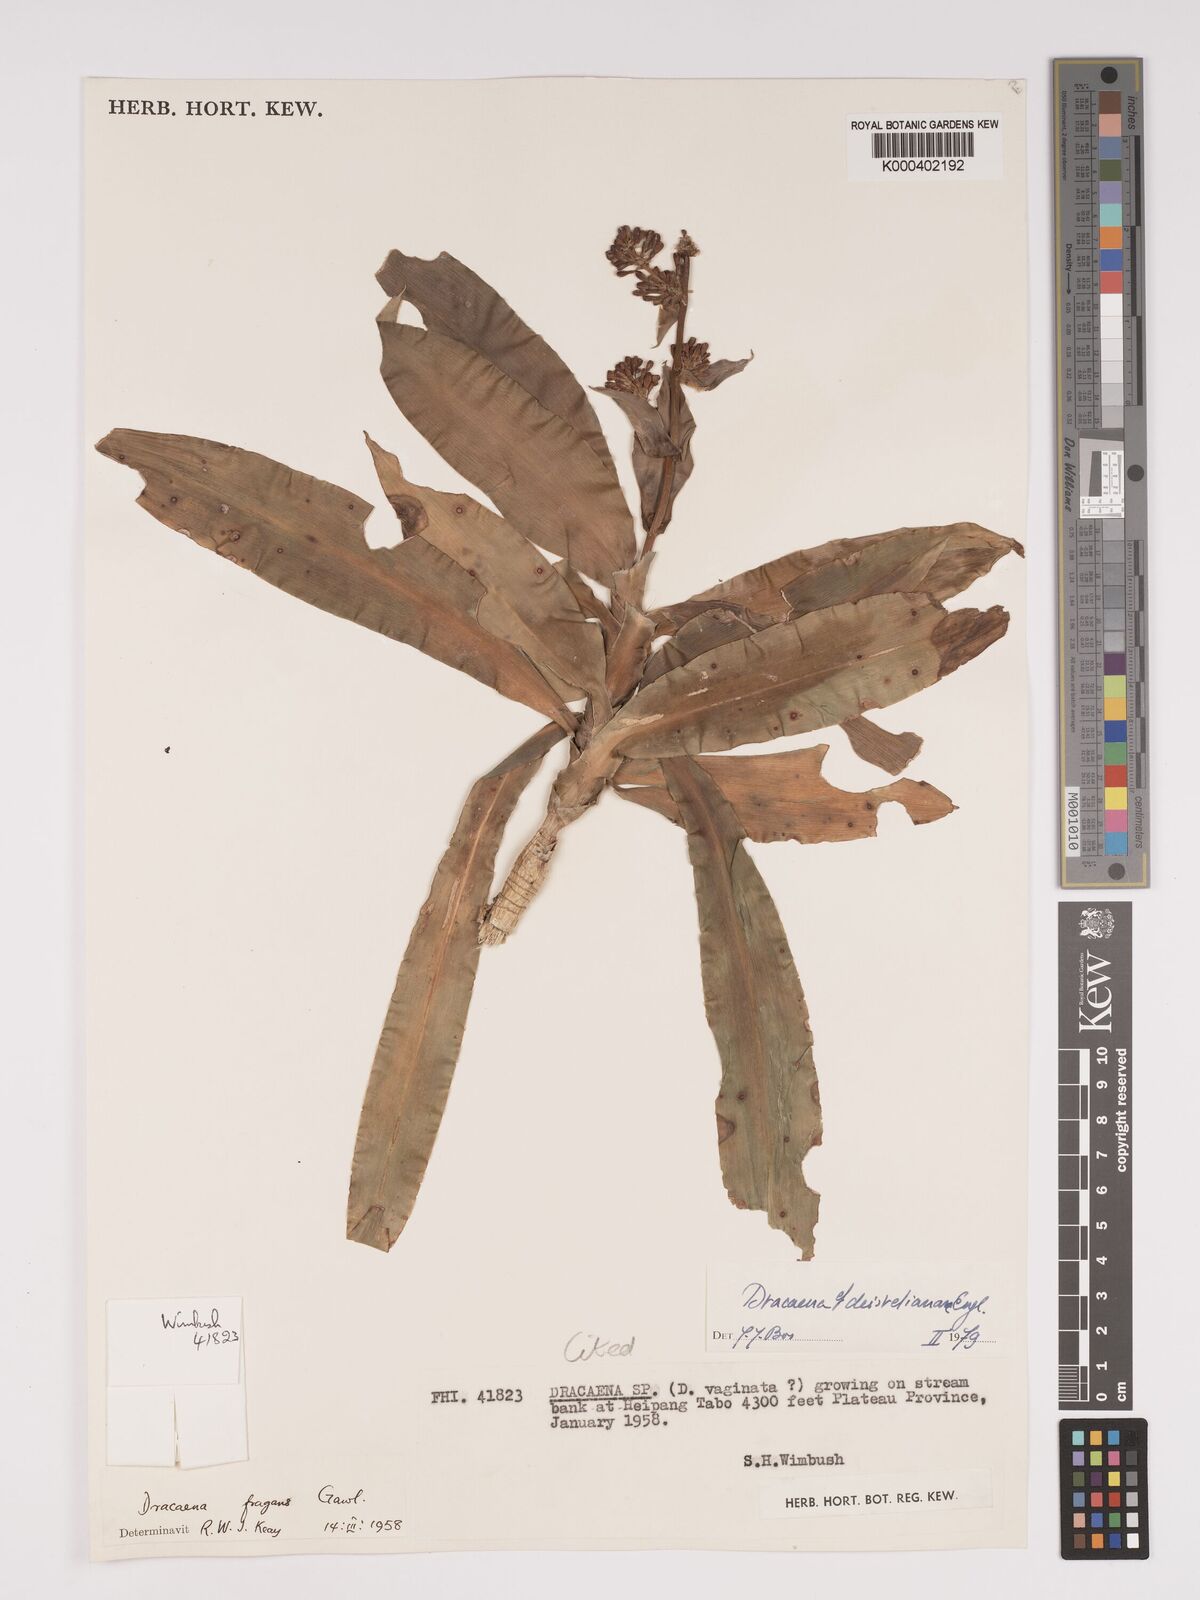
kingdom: Plantae
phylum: Tracheophyta
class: Liliopsida
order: Asparagales
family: Asparagaceae
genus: Dracaena
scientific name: Dracaena fragrans
